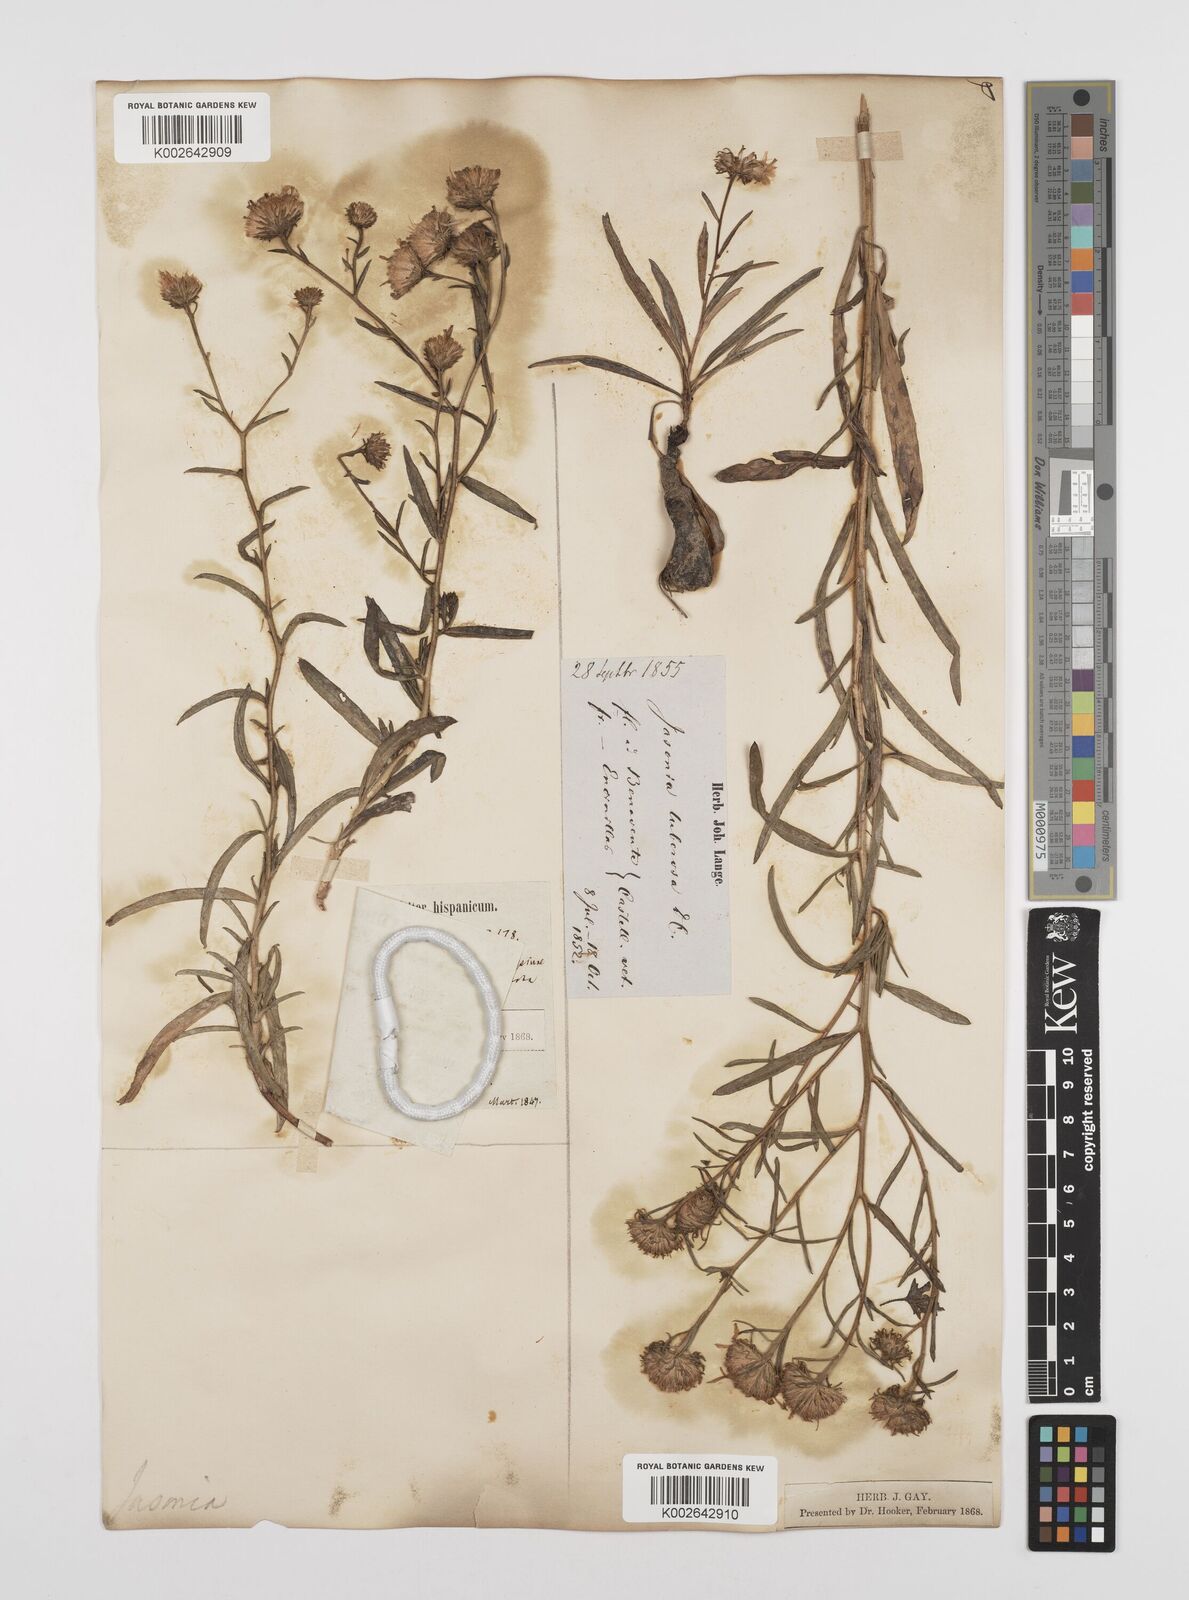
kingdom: Plantae
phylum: Tracheophyta
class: Magnoliopsida
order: Asterales
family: Asteraceae
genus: Jasonia
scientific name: Jasonia tuberosa
